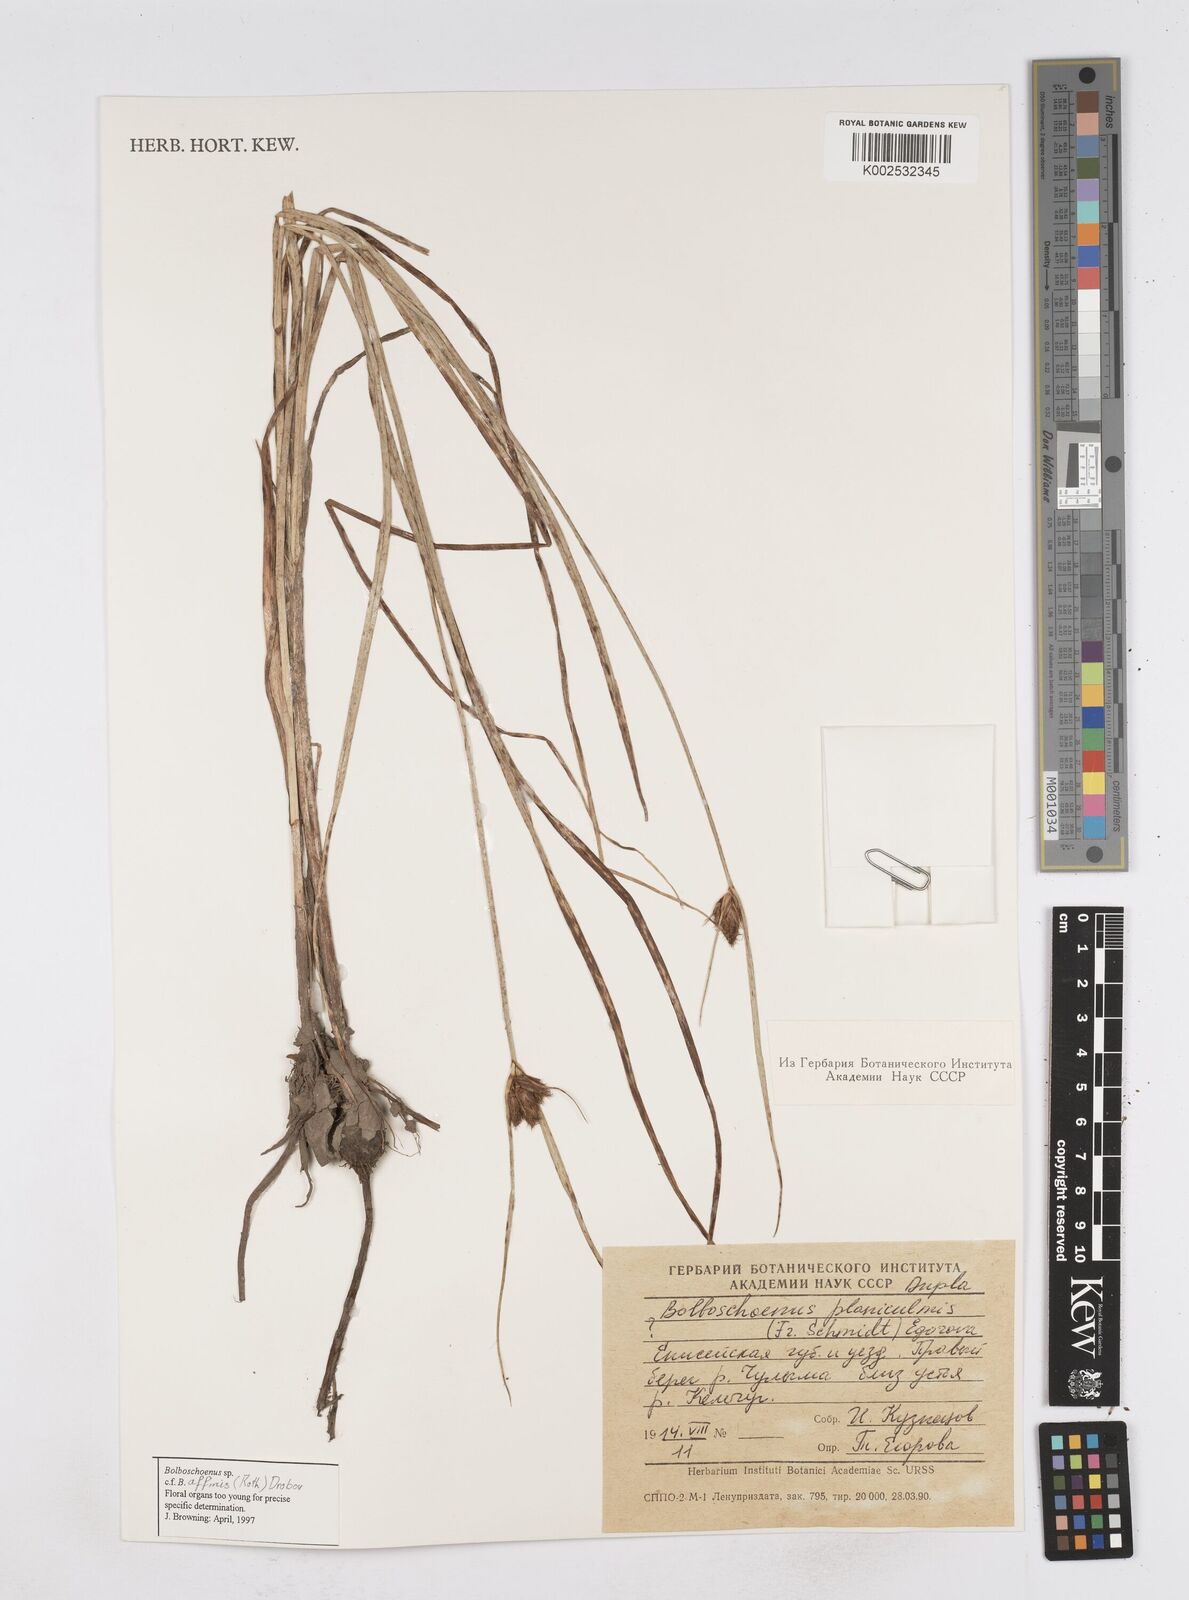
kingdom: Plantae
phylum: Tracheophyta
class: Liliopsida
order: Poales
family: Cyperaceae
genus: Bolboschoenus
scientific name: Bolboschoenus planiculmis
